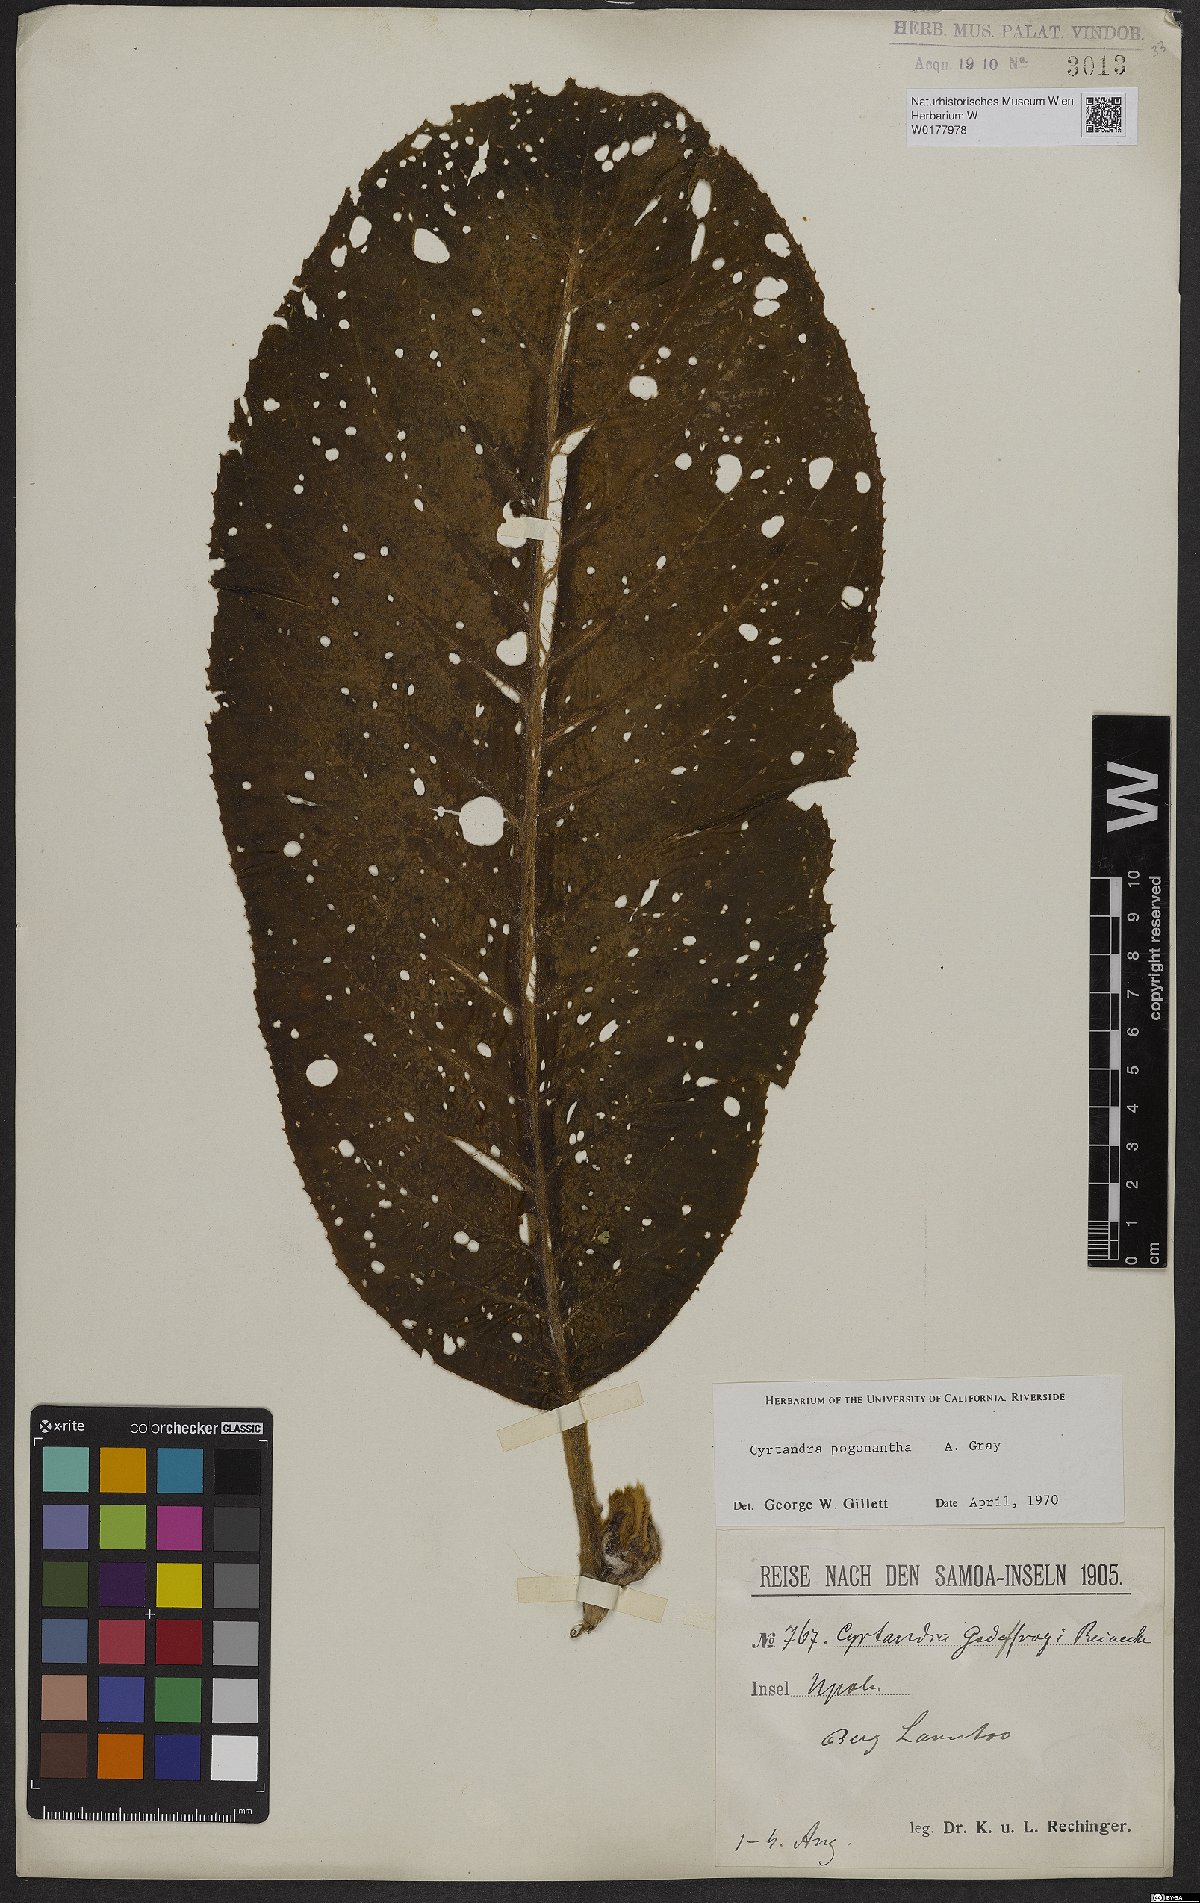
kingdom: Plantae
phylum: Tracheophyta
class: Magnoliopsida
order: Lamiales
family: Gesneriaceae
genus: Cyrtandra
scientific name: Cyrtandra pogonantha
